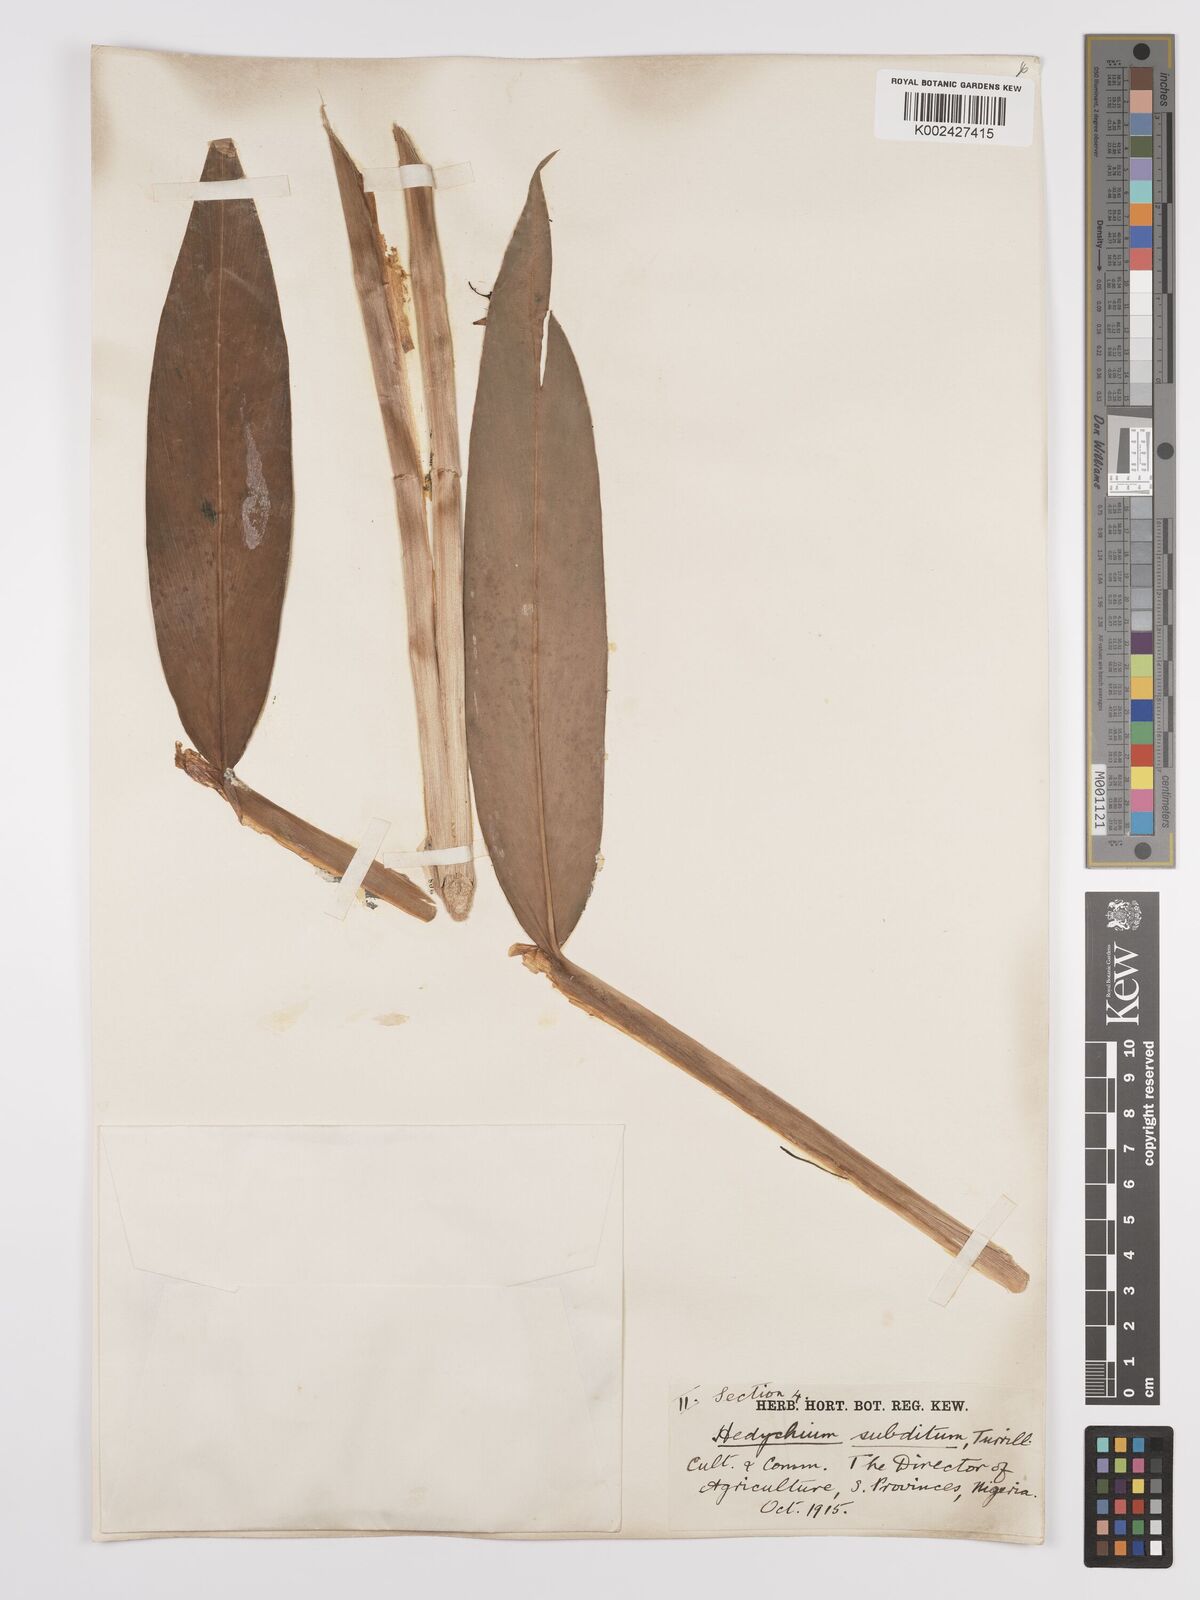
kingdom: Plantae
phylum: Tracheophyta
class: Liliopsida
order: Zingiberales
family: Zingiberaceae
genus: Hedychium
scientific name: Hedychium flavescens
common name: Yellow ginger
